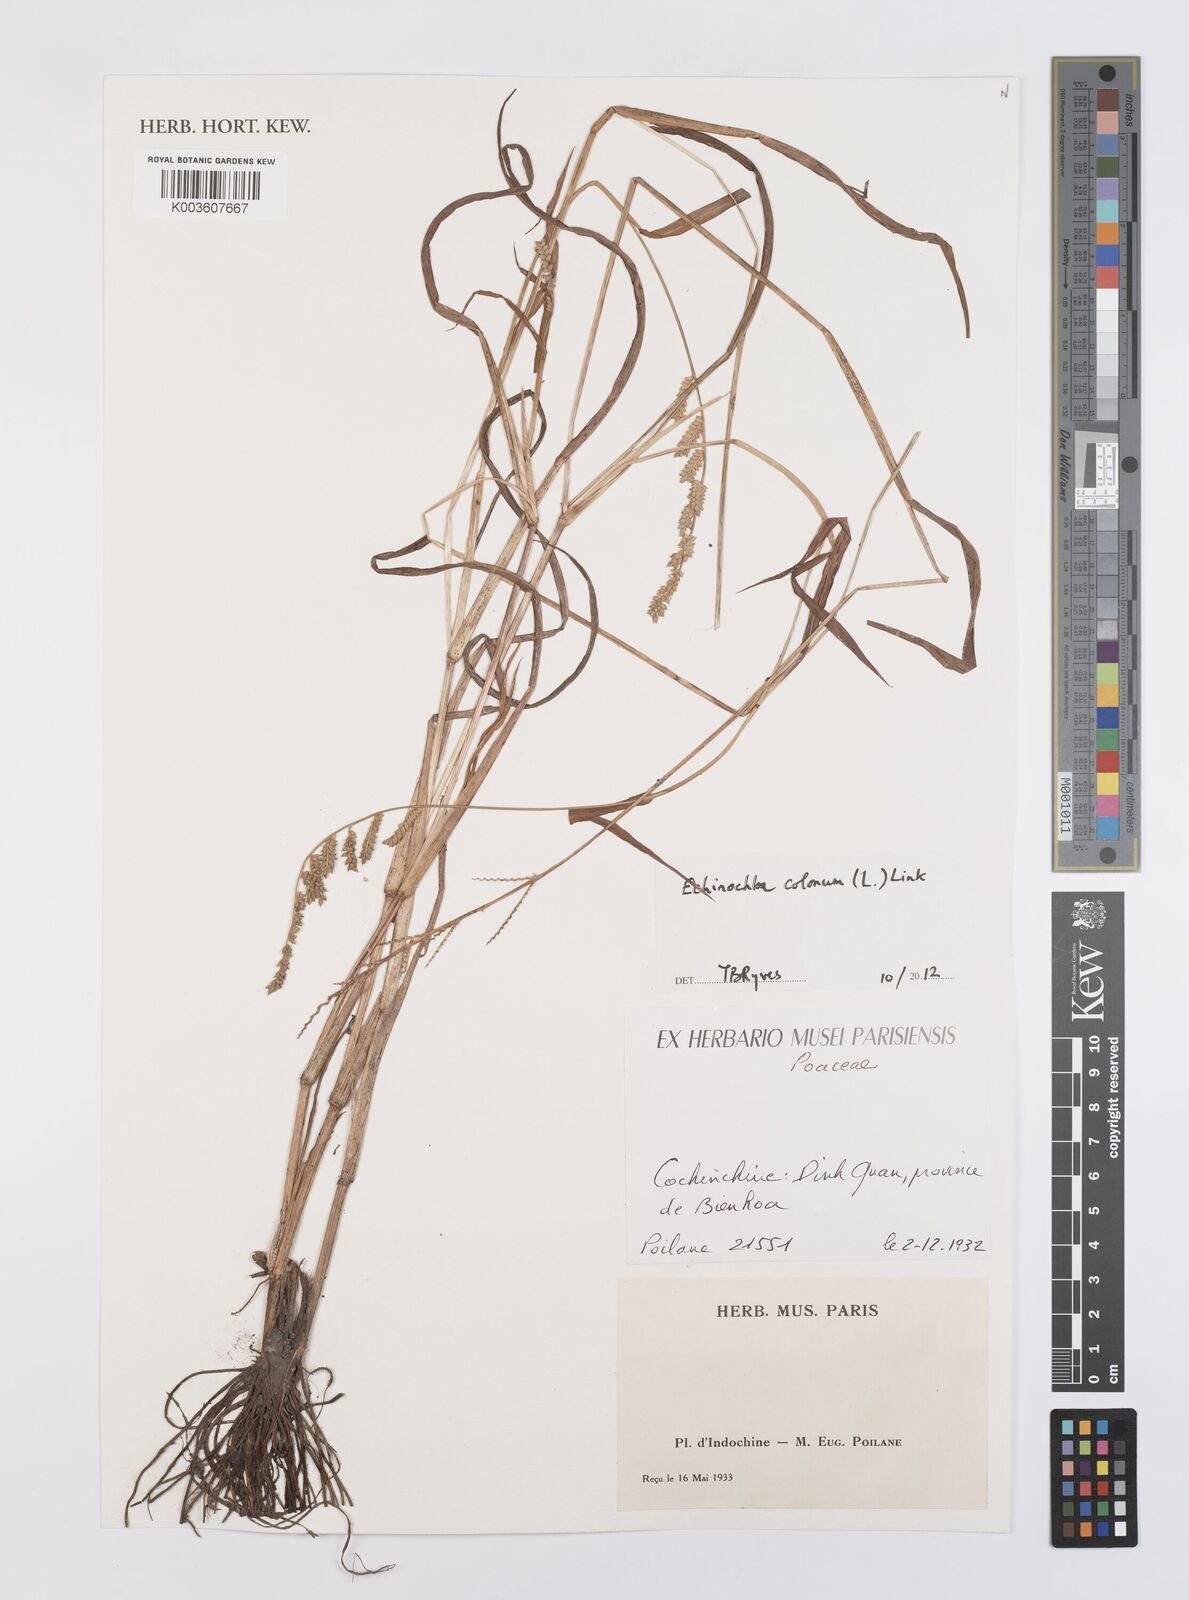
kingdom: Plantae
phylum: Tracheophyta
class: Liliopsida
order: Poales
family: Poaceae
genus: Echinochloa
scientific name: Echinochloa colonum
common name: Jungle rice
